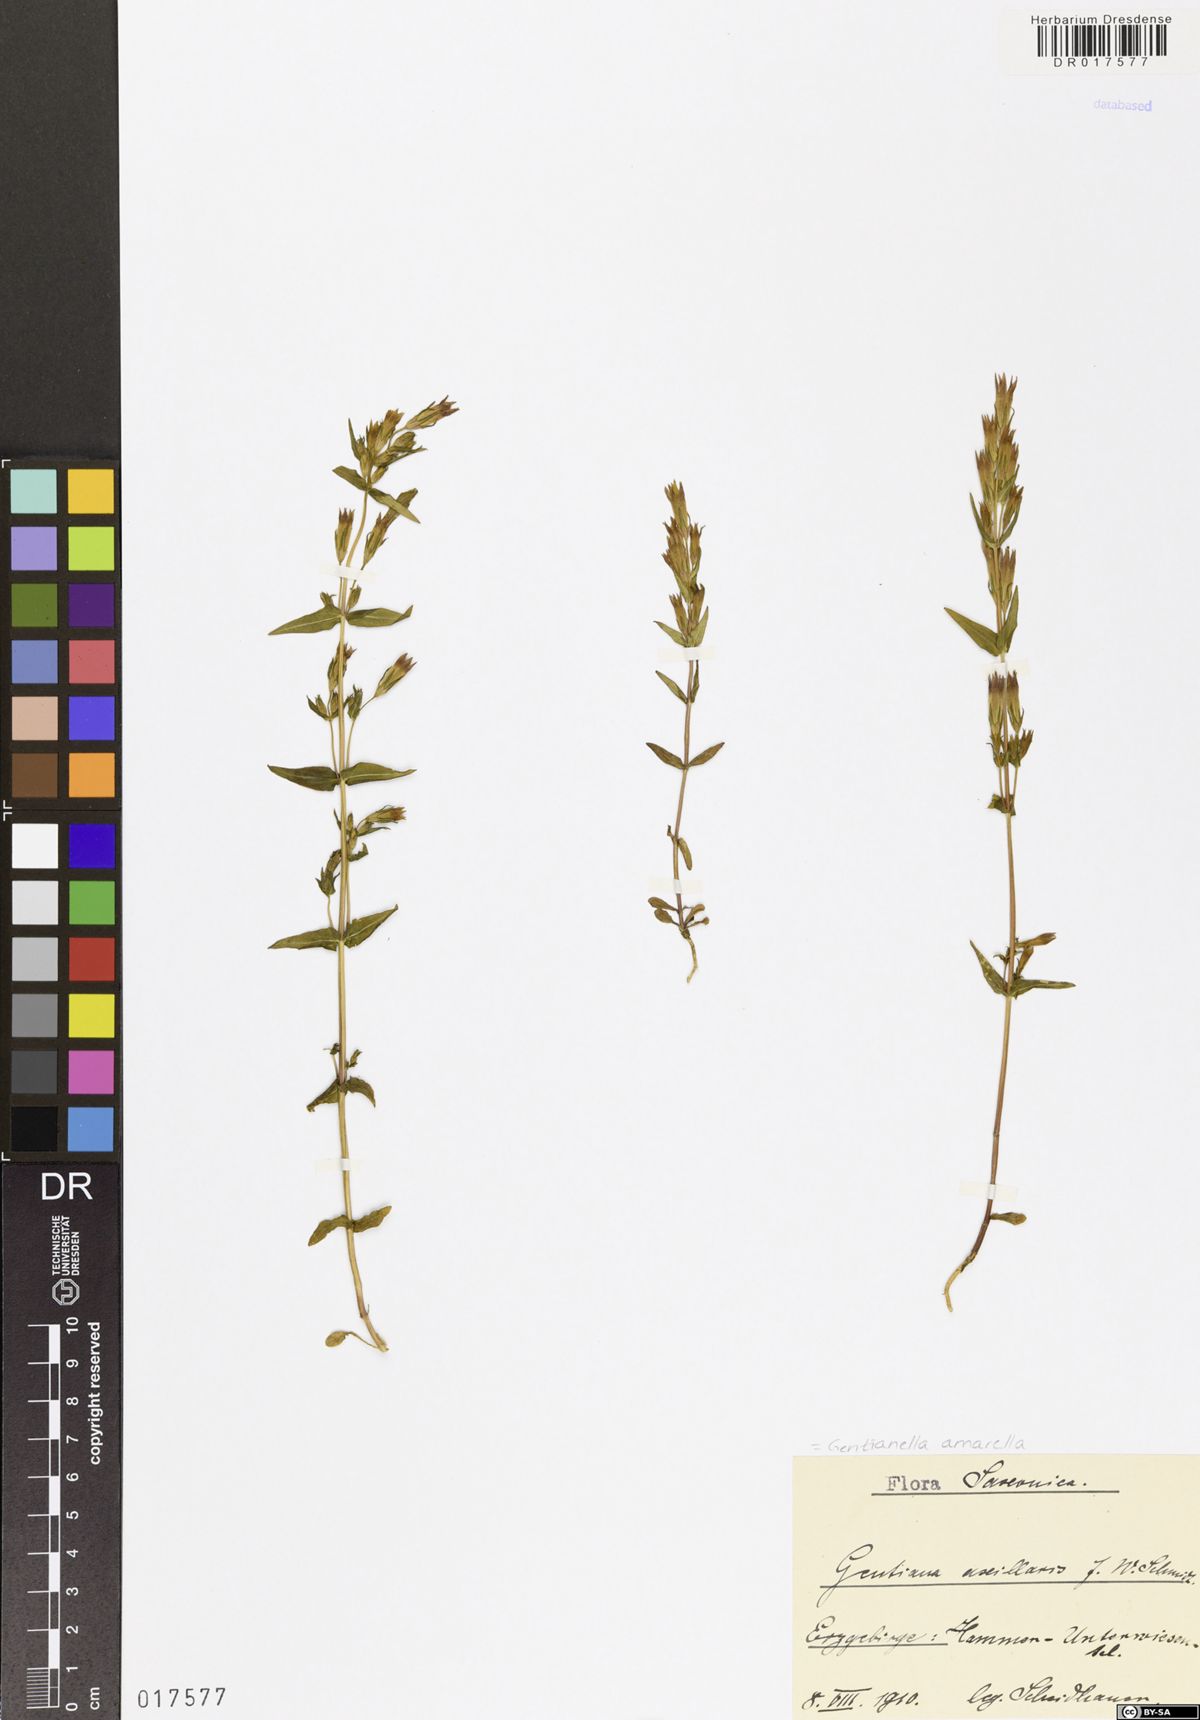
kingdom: Plantae
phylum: Tracheophyta
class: Magnoliopsida
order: Gentianales
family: Gentianaceae
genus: Gentianella
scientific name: Gentianella amarella
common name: Autumn gentian
